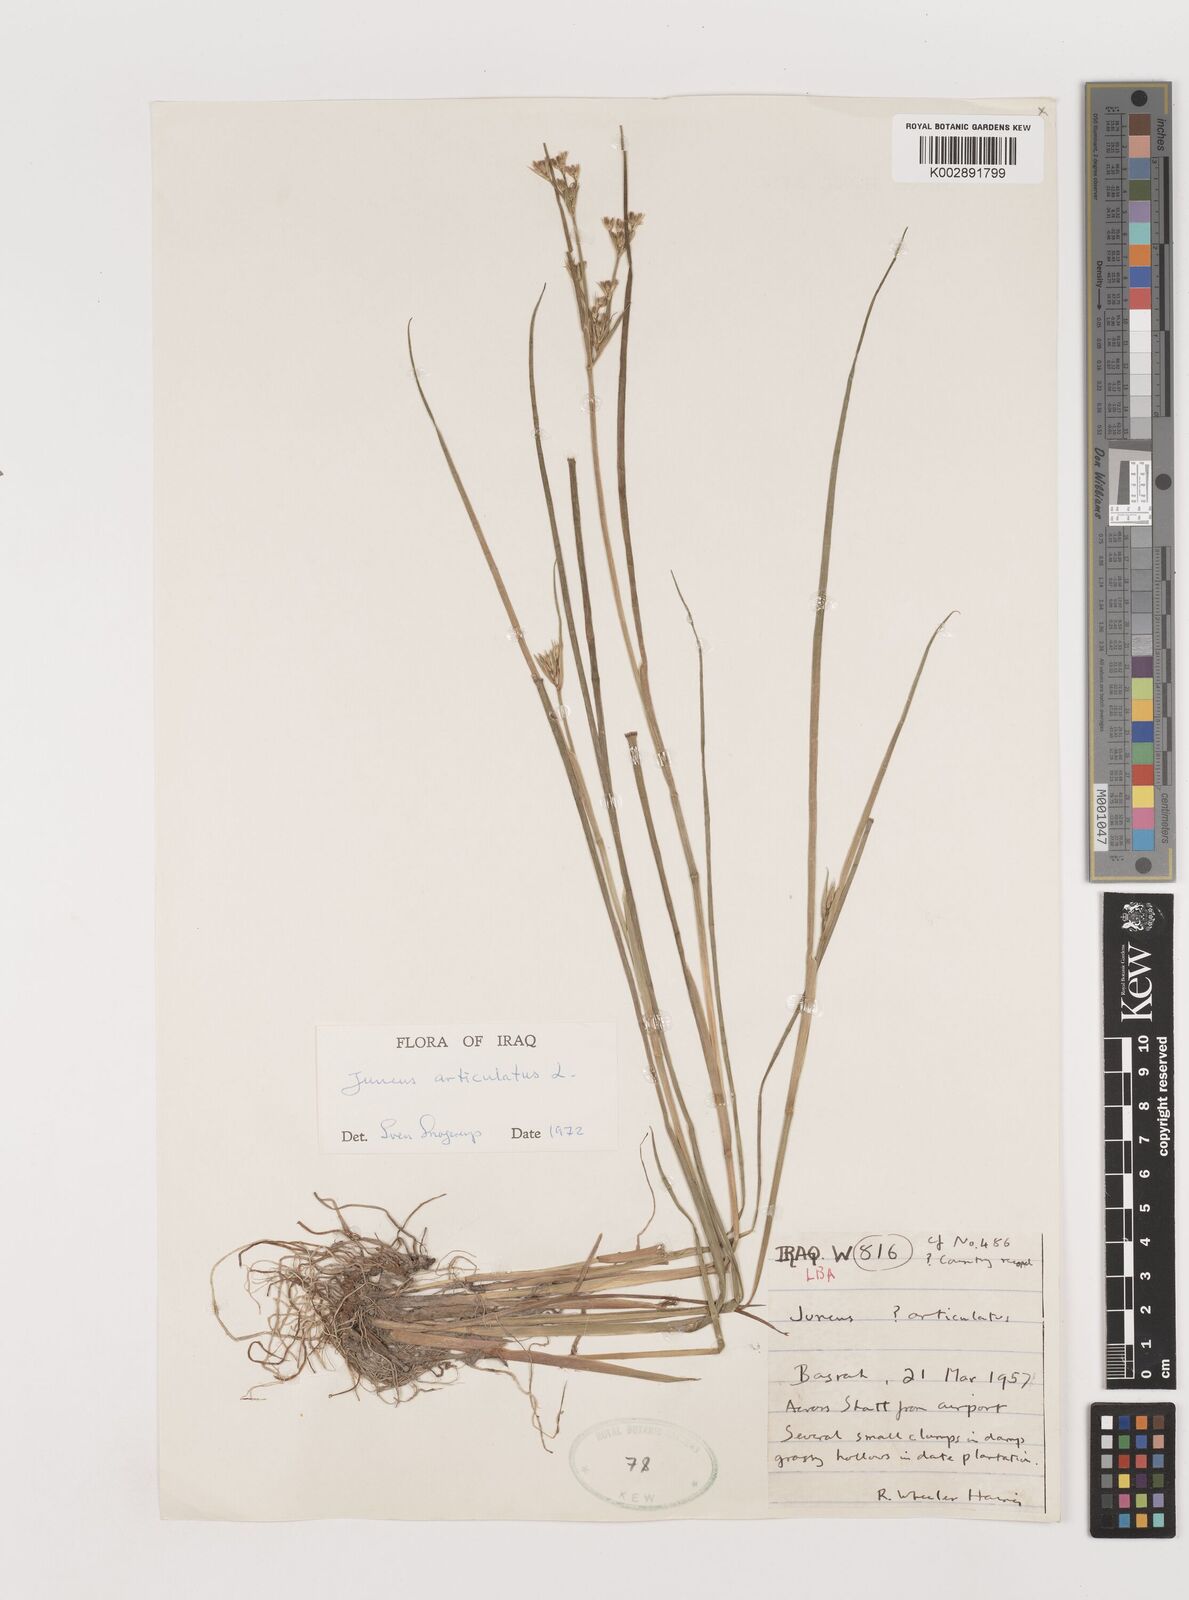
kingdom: Plantae
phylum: Tracheophyta
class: Liliopsida
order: Poales
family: Juncaceae
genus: Juncus
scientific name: Juncus articulatus
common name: Jointed rush
